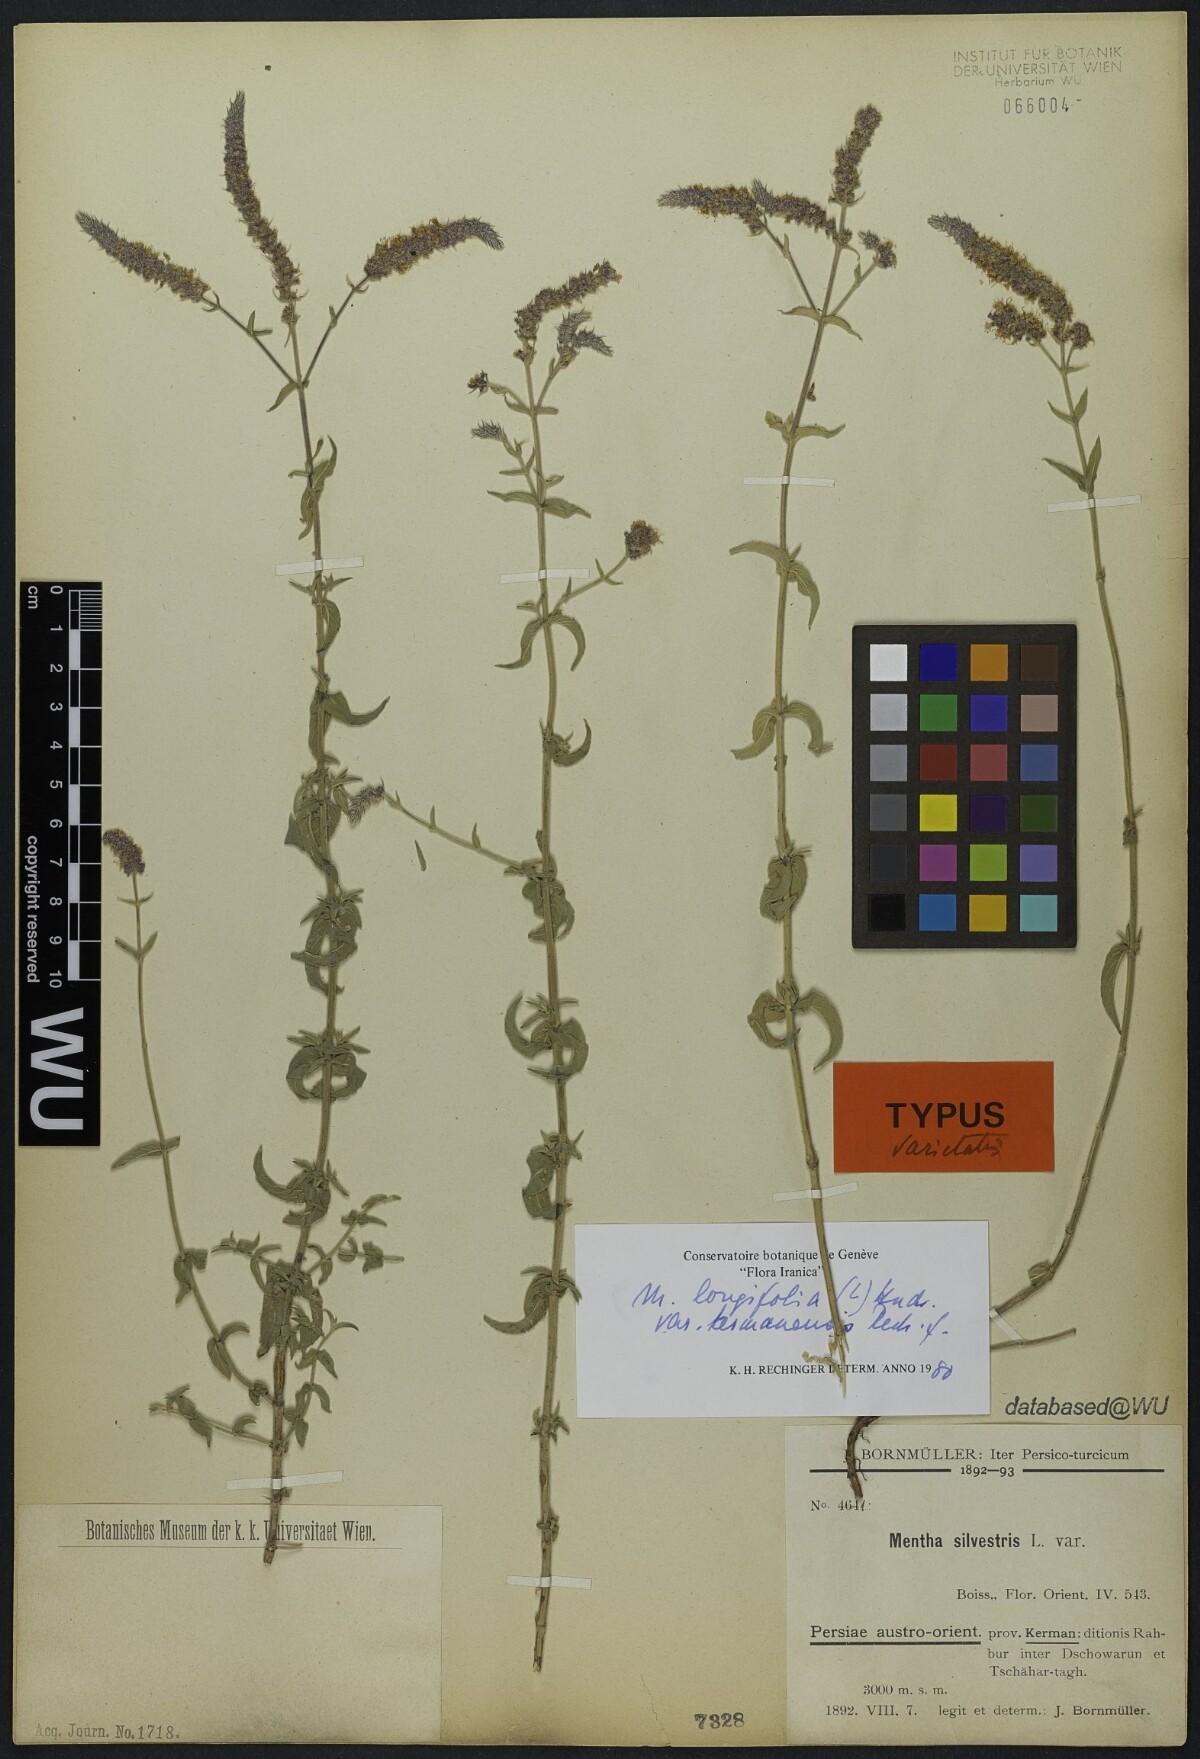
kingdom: Plantae
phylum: Tracheophyta
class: Magnoliopsida
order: Lamiales
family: Lamiaceae
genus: Mentha
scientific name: Mentha longifolia
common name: Horse mint
